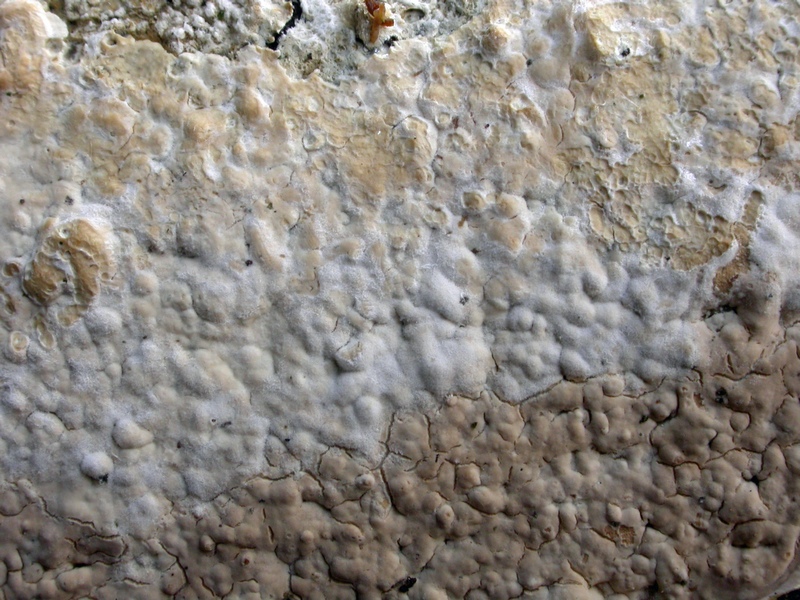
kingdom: Fungi
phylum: Basidiomycota
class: Agaricomycetes
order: Agaricales
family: Physalacriaceae
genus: Cylindrobasidium
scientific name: Cylindrobasidium evolvens
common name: sprækkehinde
